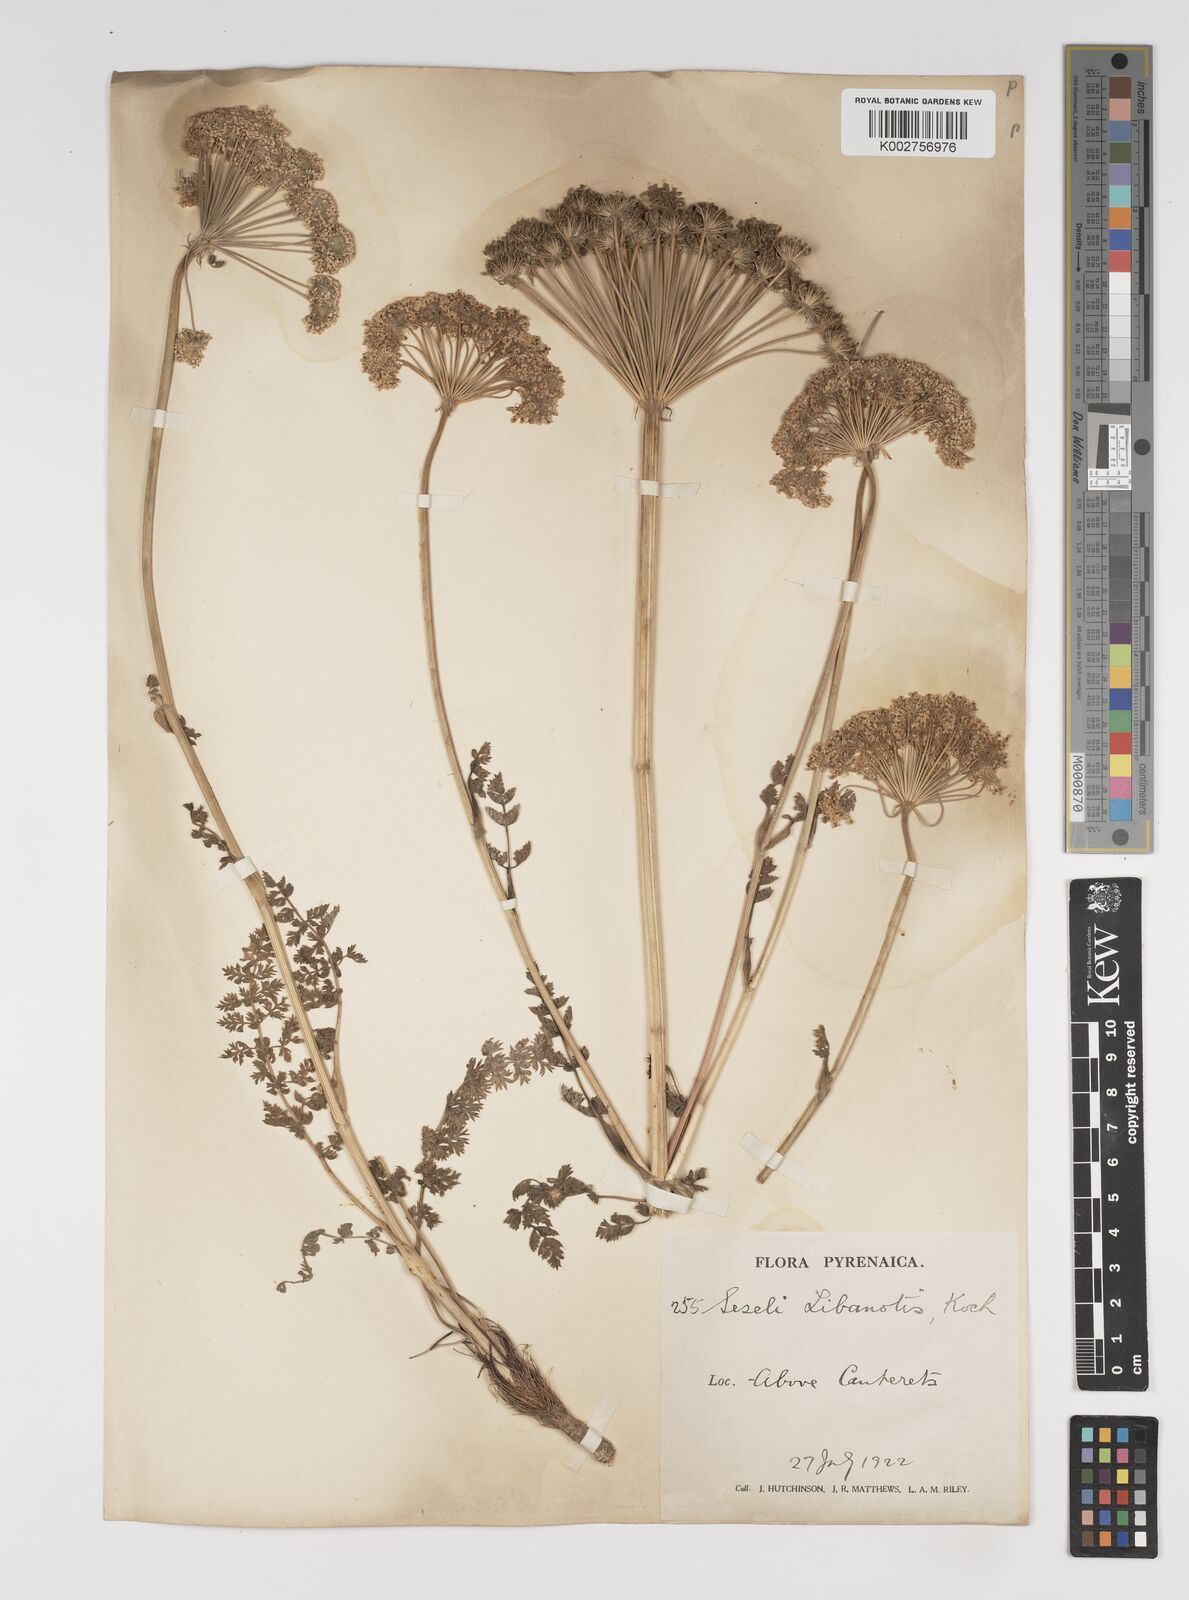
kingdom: Plantae
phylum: Tracheophyta
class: Magnoliopsida
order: Apiales
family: Apiaceae
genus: Seseli
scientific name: Seseli libanotis
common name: Mooncarrot
